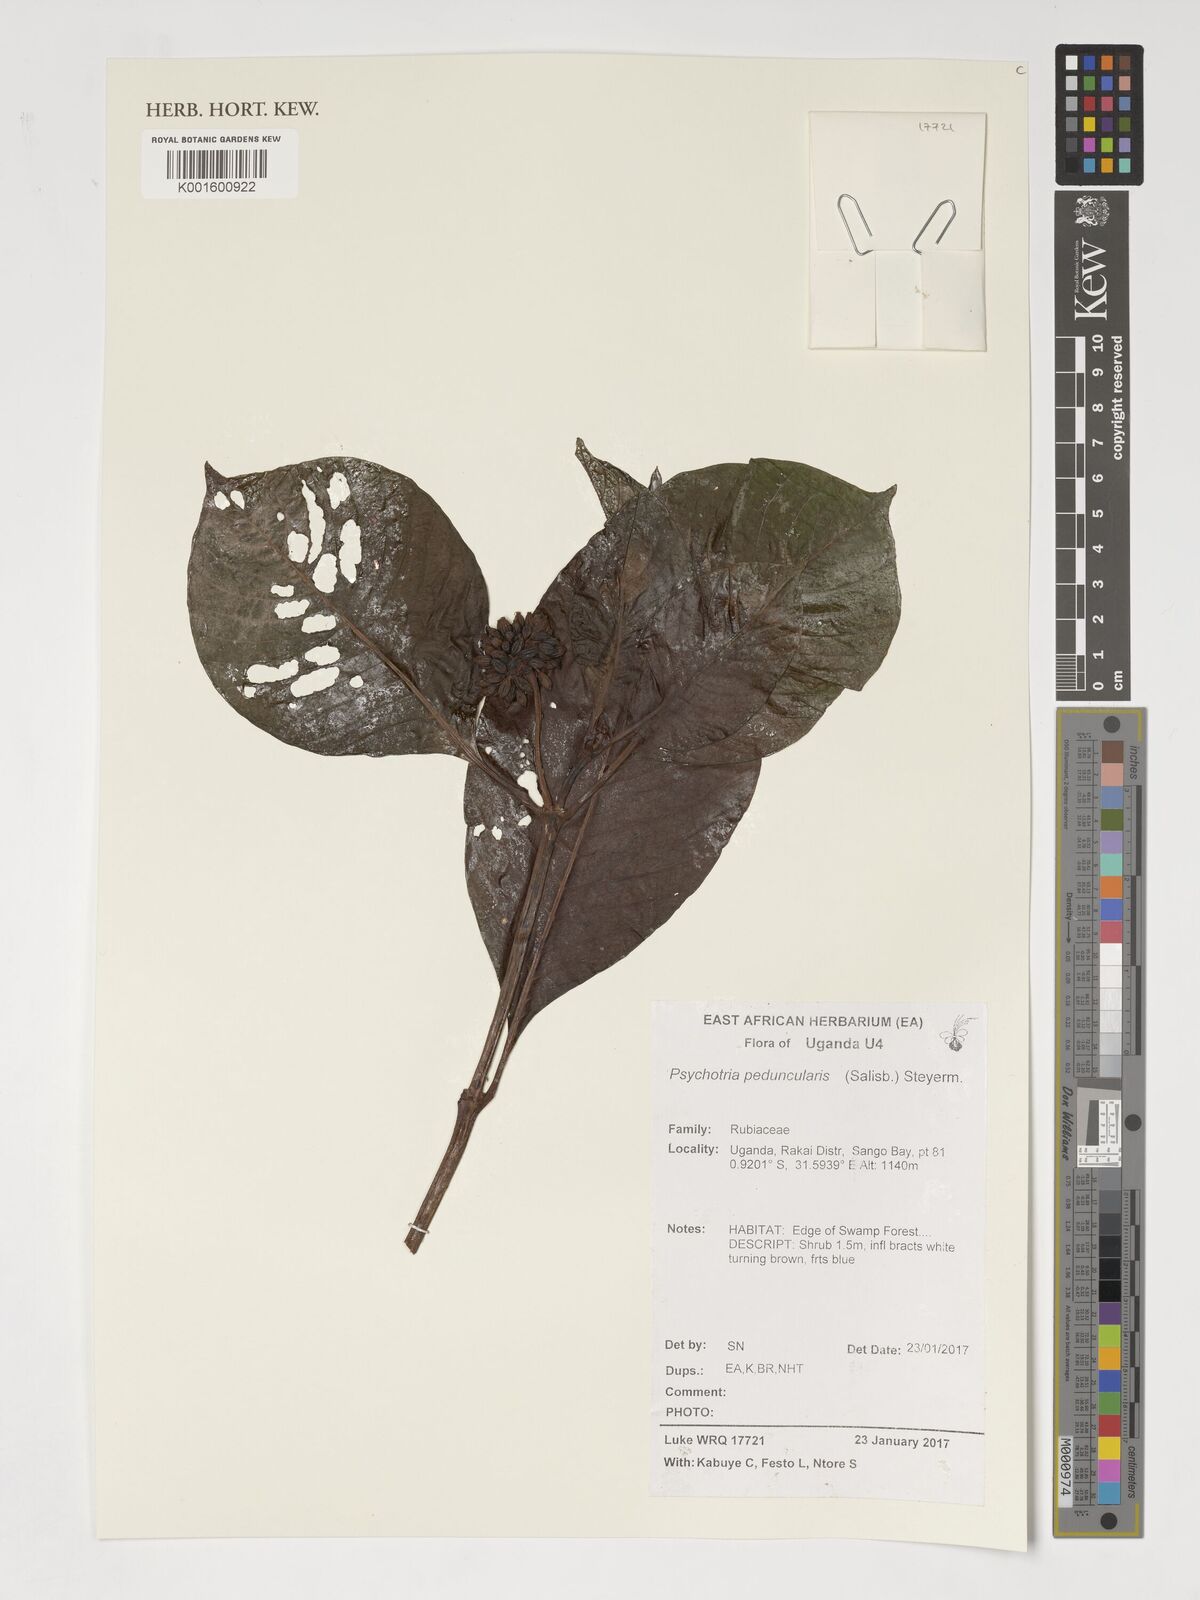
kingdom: Plantae
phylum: Tracheophyta
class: Magnoliopsida
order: Gentianales
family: Rubiaceae
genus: Psychotria
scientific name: Psychotria peduncularis
